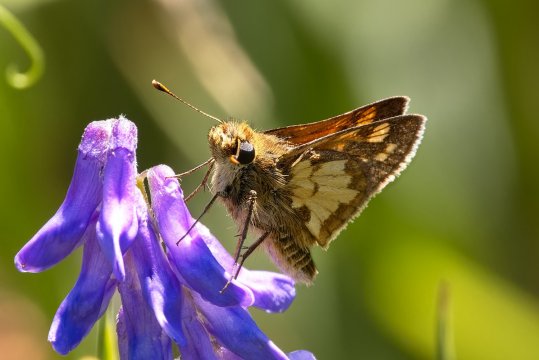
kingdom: Animalia
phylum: Arthropoda
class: Insecta
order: Lepidoptera
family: Hesperiidae
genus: Polites
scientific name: Polites coras
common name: Peck's Skipper
